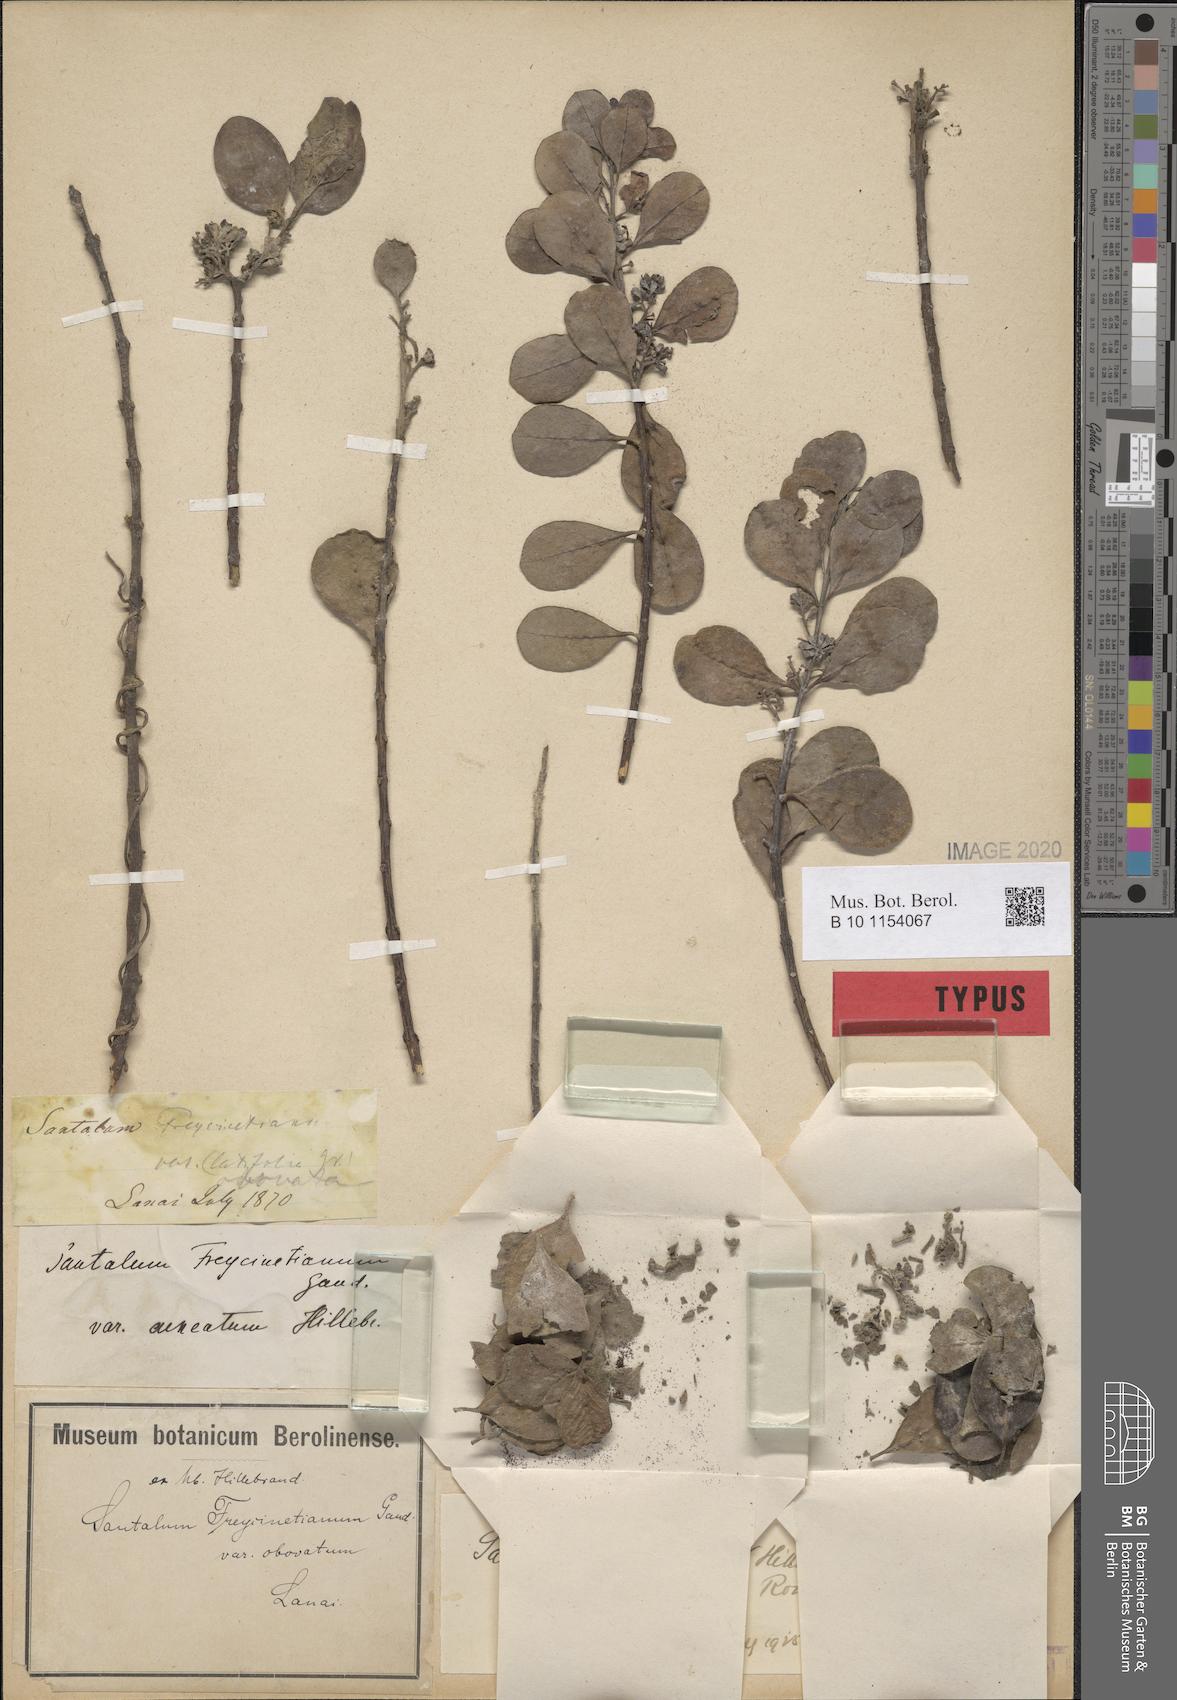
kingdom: Plantae
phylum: Tracheophyta
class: Magnoliopsida
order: Santalales
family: Santalaceae
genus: Santalum
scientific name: Santalum ellipticum
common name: Coast sandalwood
